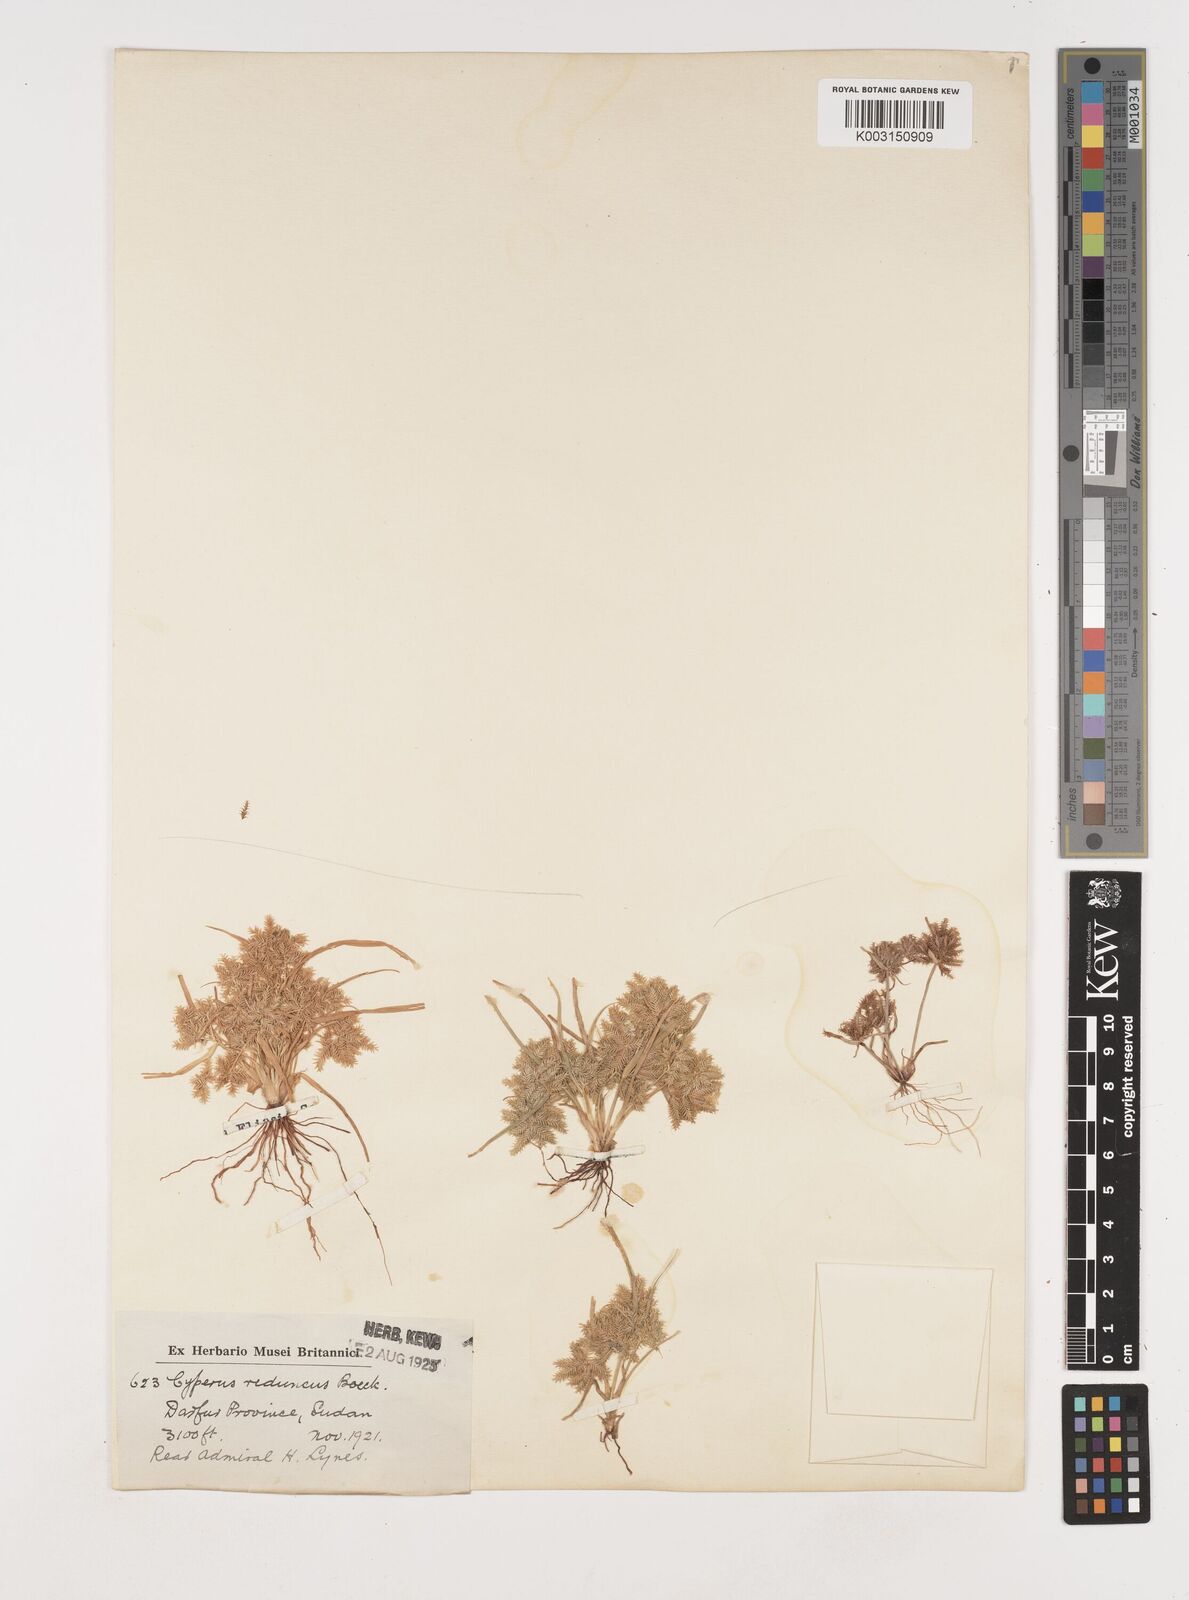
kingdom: Plantae
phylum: Tracheophyta
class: Liliopsida
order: Poales
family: Cyperaceae
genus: Cyperus
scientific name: Cyperus reduncus
